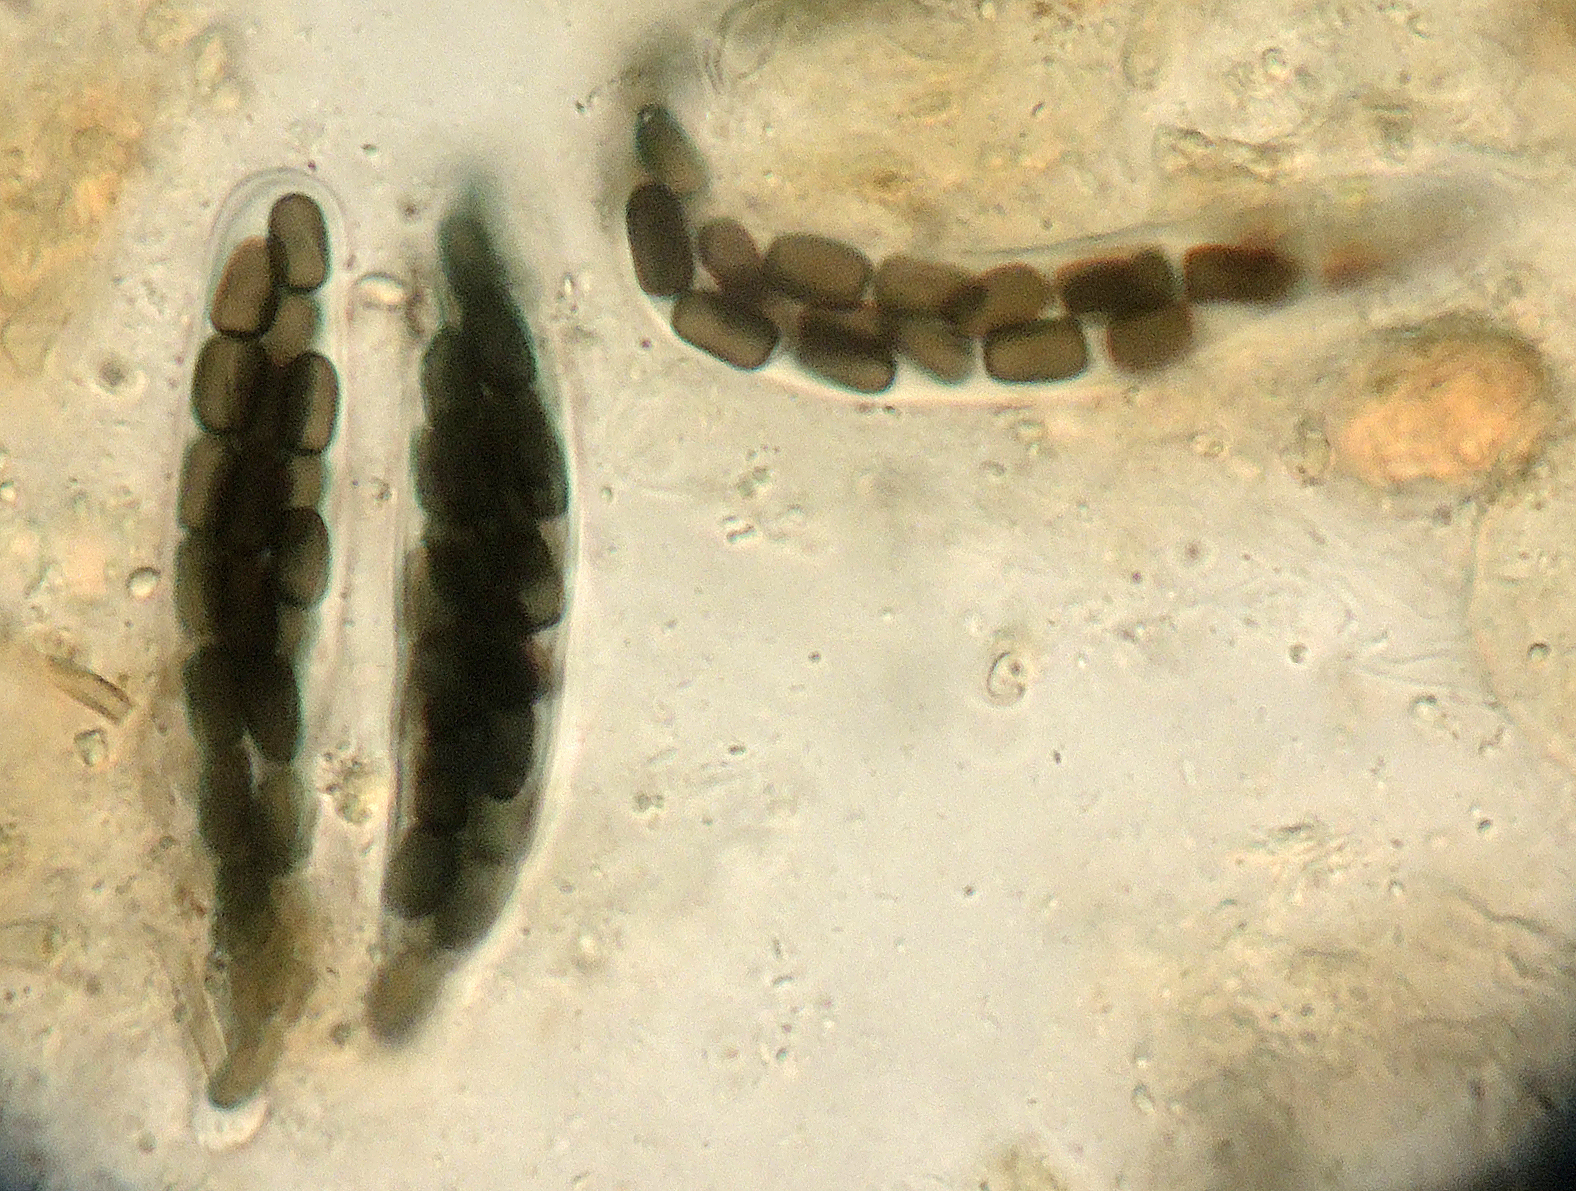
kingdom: Fungi
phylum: Ascomycota
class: Dothideomycetes
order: Pleosporales
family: Sporormiaceae
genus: Sporormiella
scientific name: Sporormiella minima
